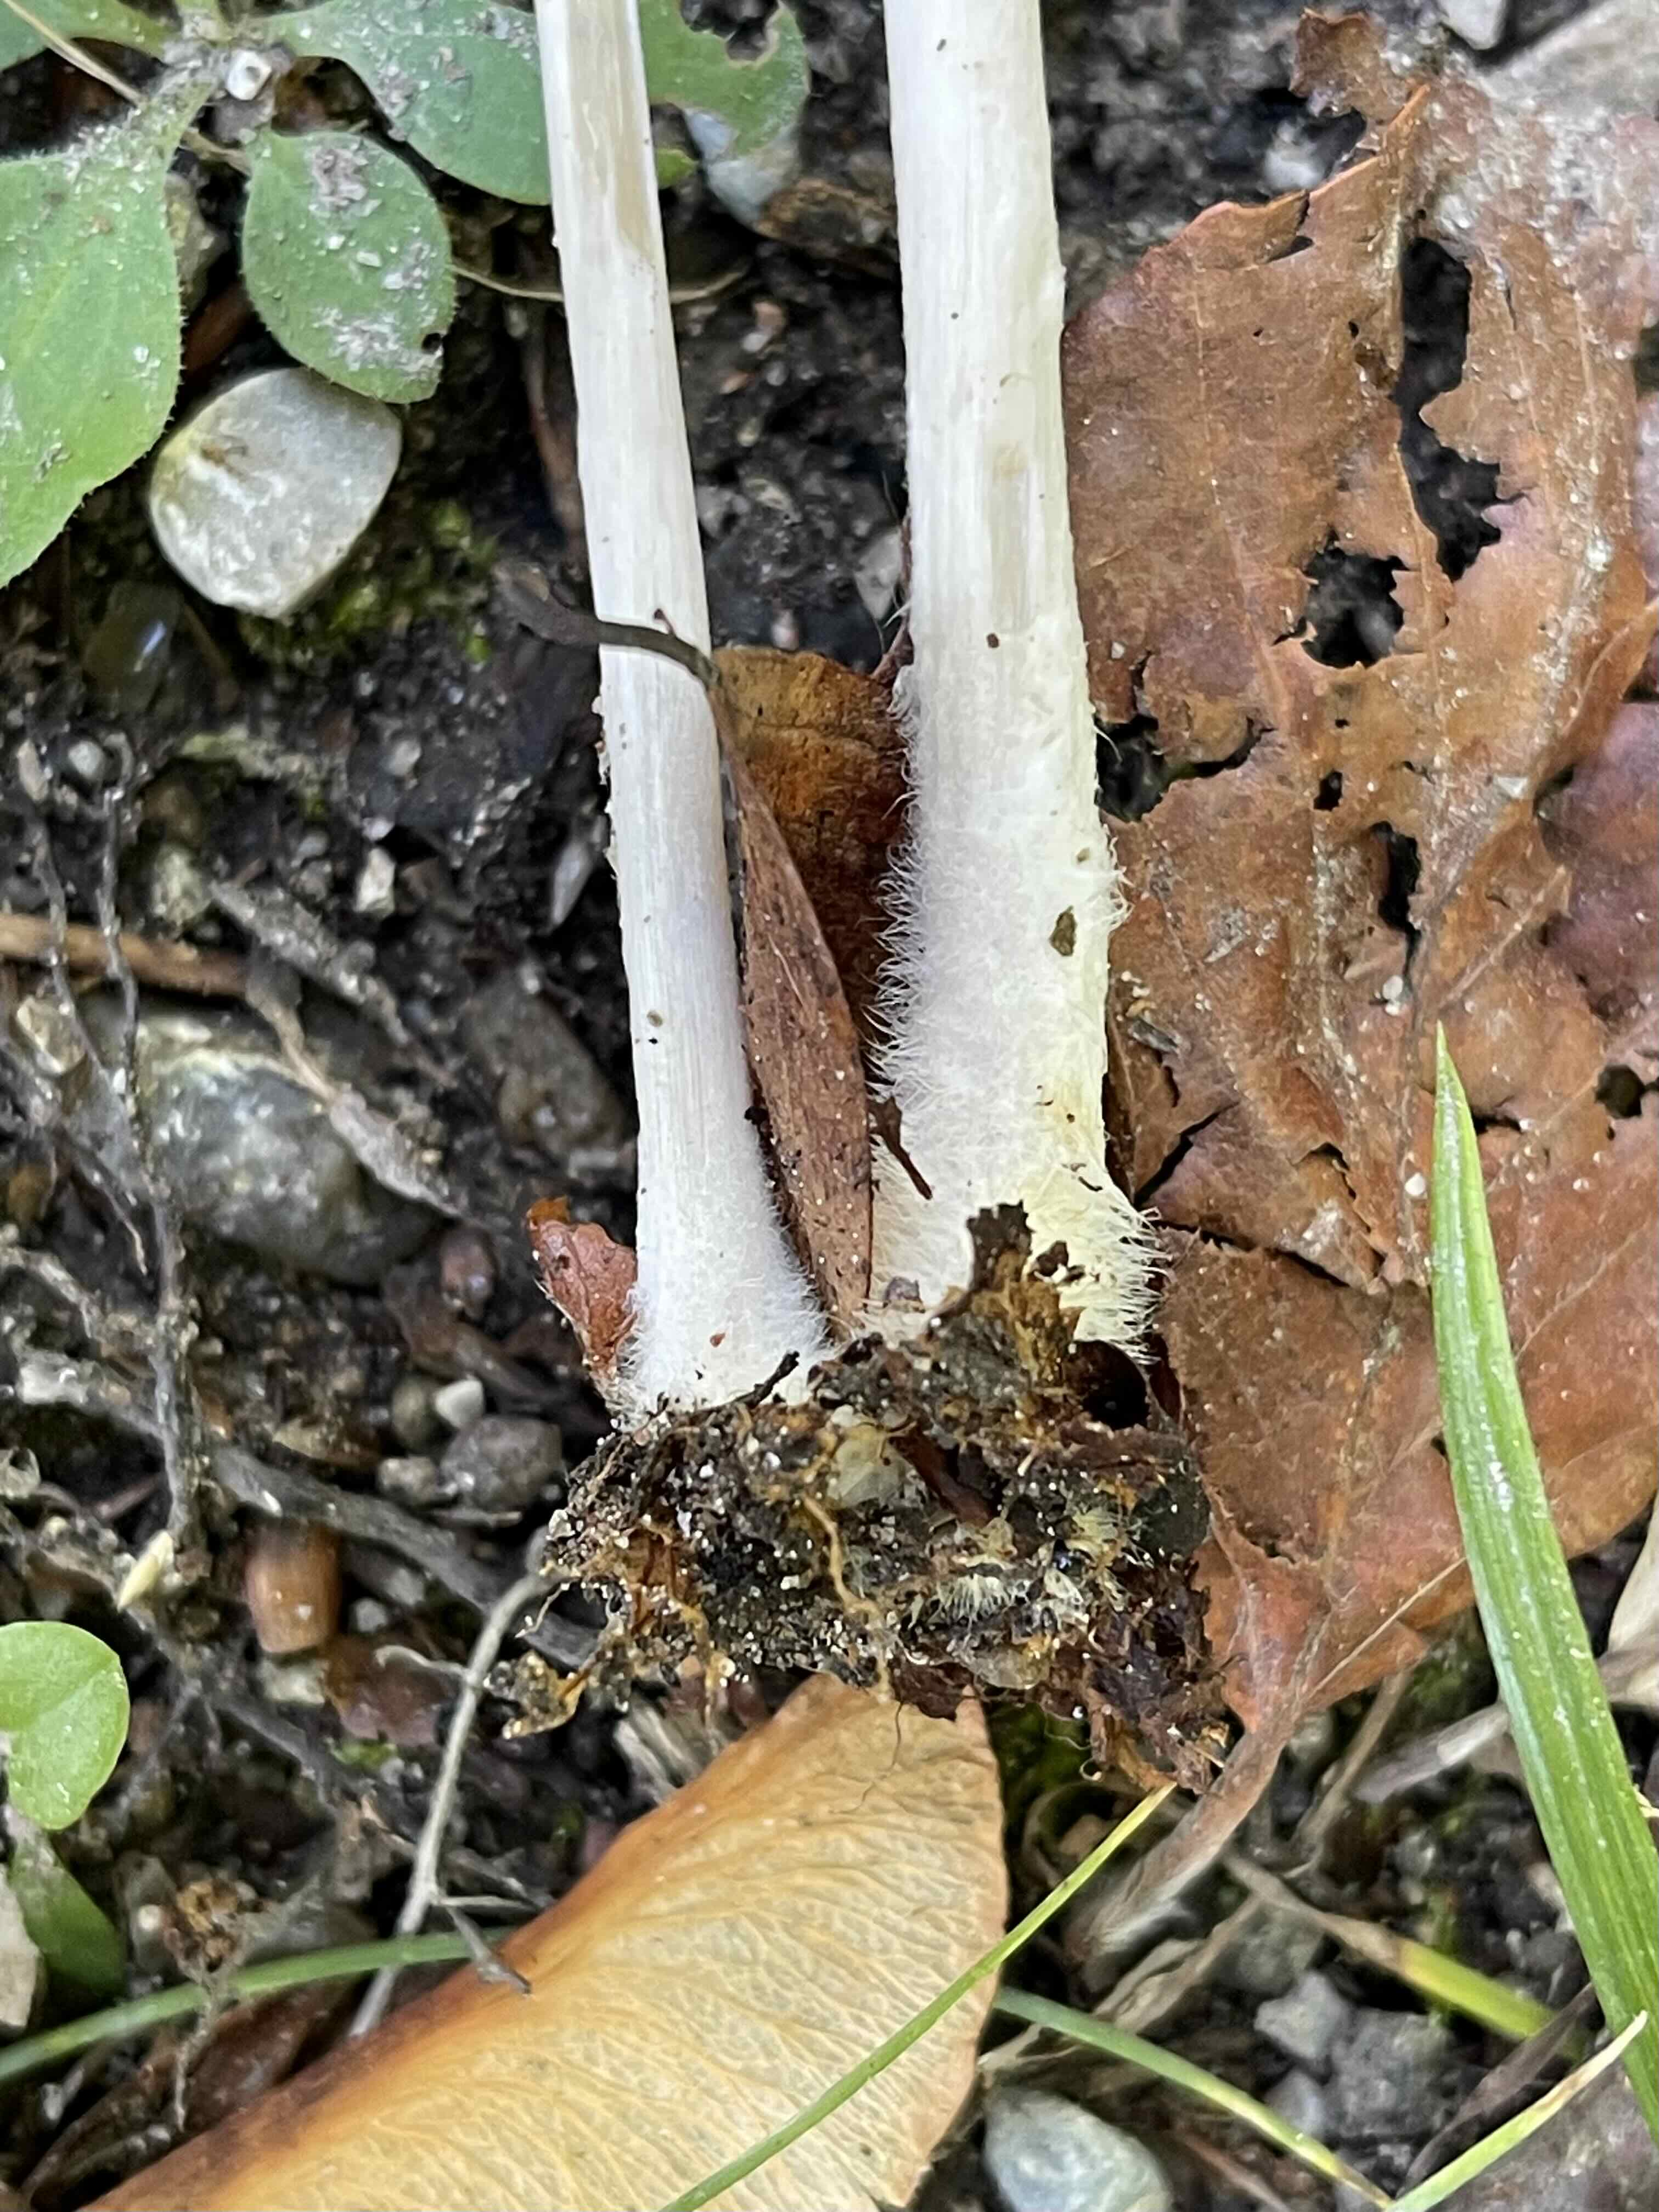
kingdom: Fungi
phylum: Basidiomycota
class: Agaricomycetes
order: Agaricales
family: Psathyrellaceae
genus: Parasola
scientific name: Parasola conopilea
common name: kegle-hjulhat
